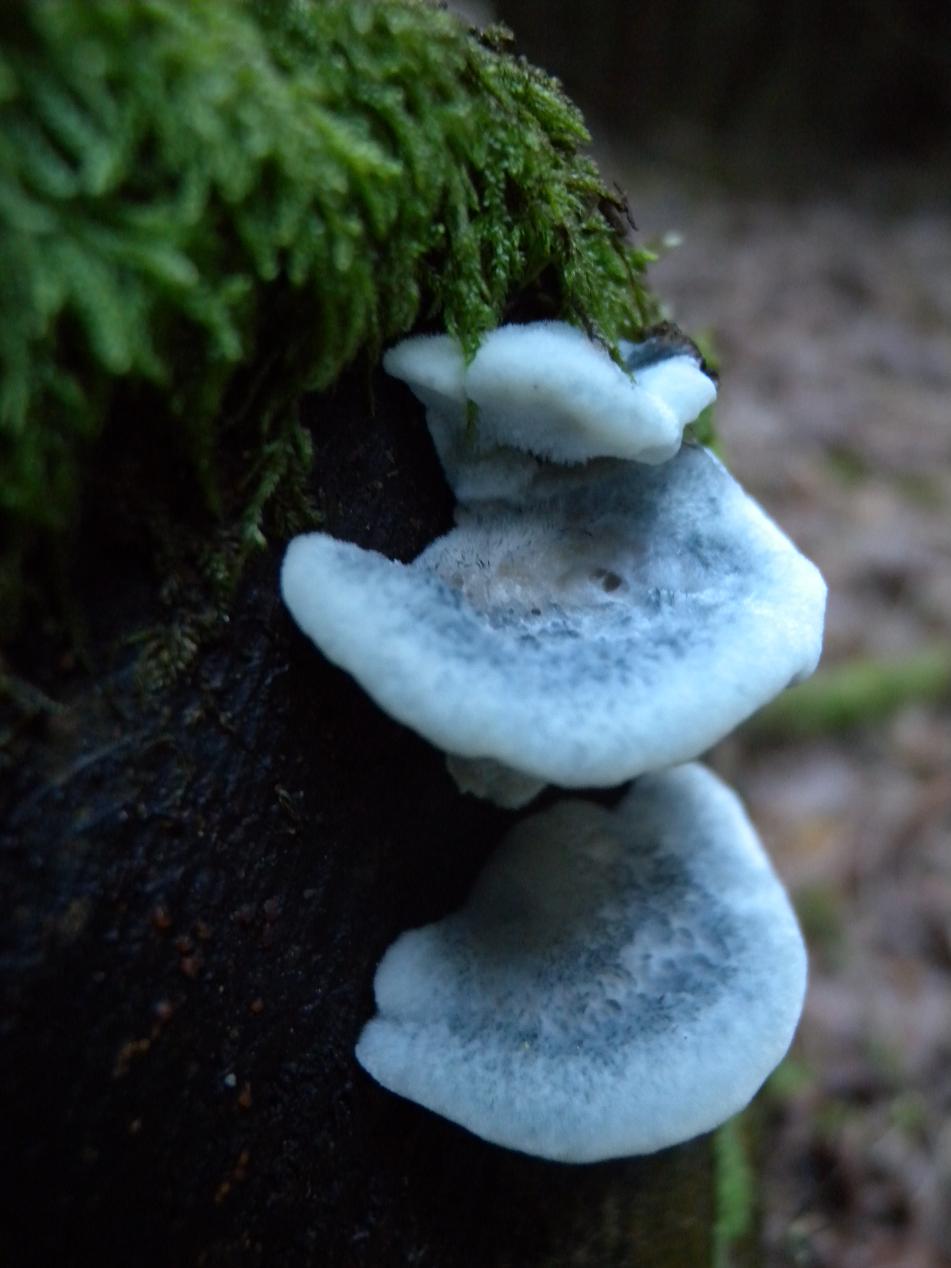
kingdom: Fungi
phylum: Basidiomycota
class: Agaricomycetes
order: Polyporales
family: Polyporaceae
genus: Cyanosporus
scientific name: Cyanosporus caesius
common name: blålig kødporesvamp
